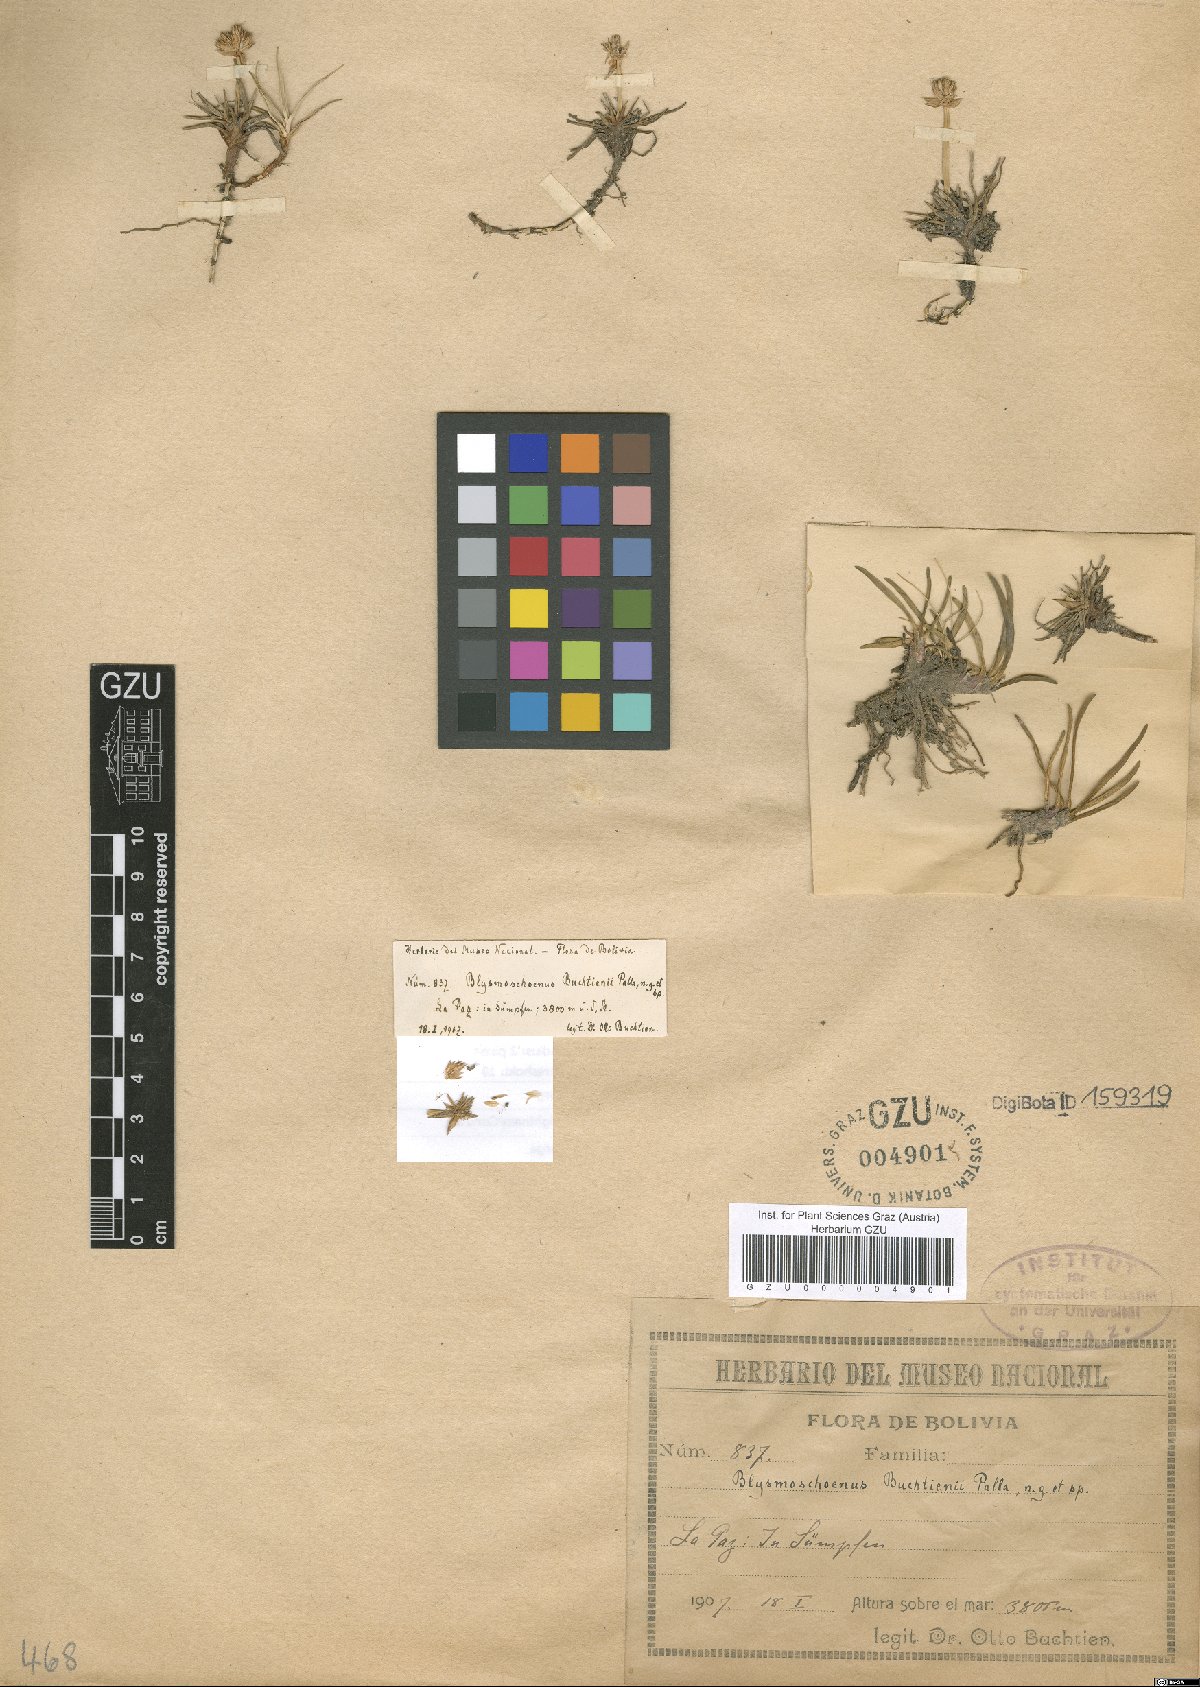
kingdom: Plantae
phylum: Tracheophyta
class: Liliopsida
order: Poales
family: Cyperaceae
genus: Blysmoschoenus
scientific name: Blysmoschoenus buchtienii
